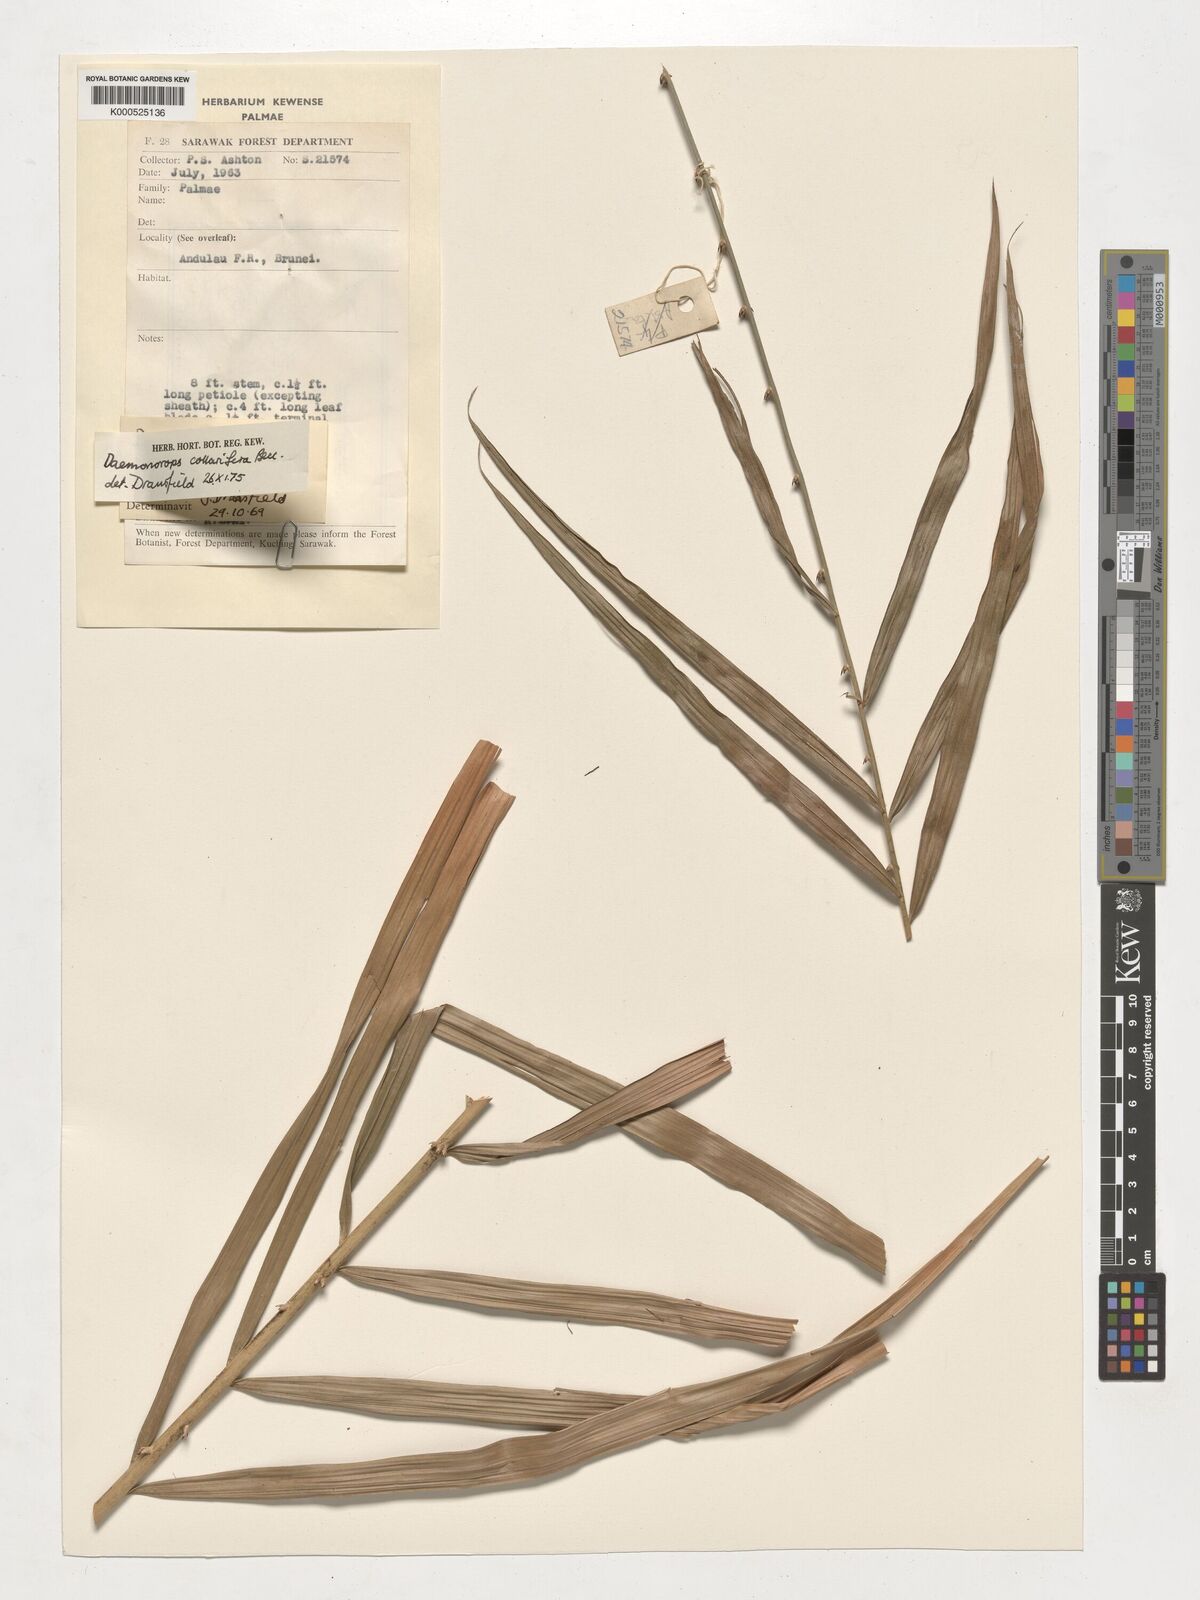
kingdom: Plantae
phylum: Tracheophyta
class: Liliopsida
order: Arecales
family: Arecaceae
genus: Calamus
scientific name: Calamus geniculatus
